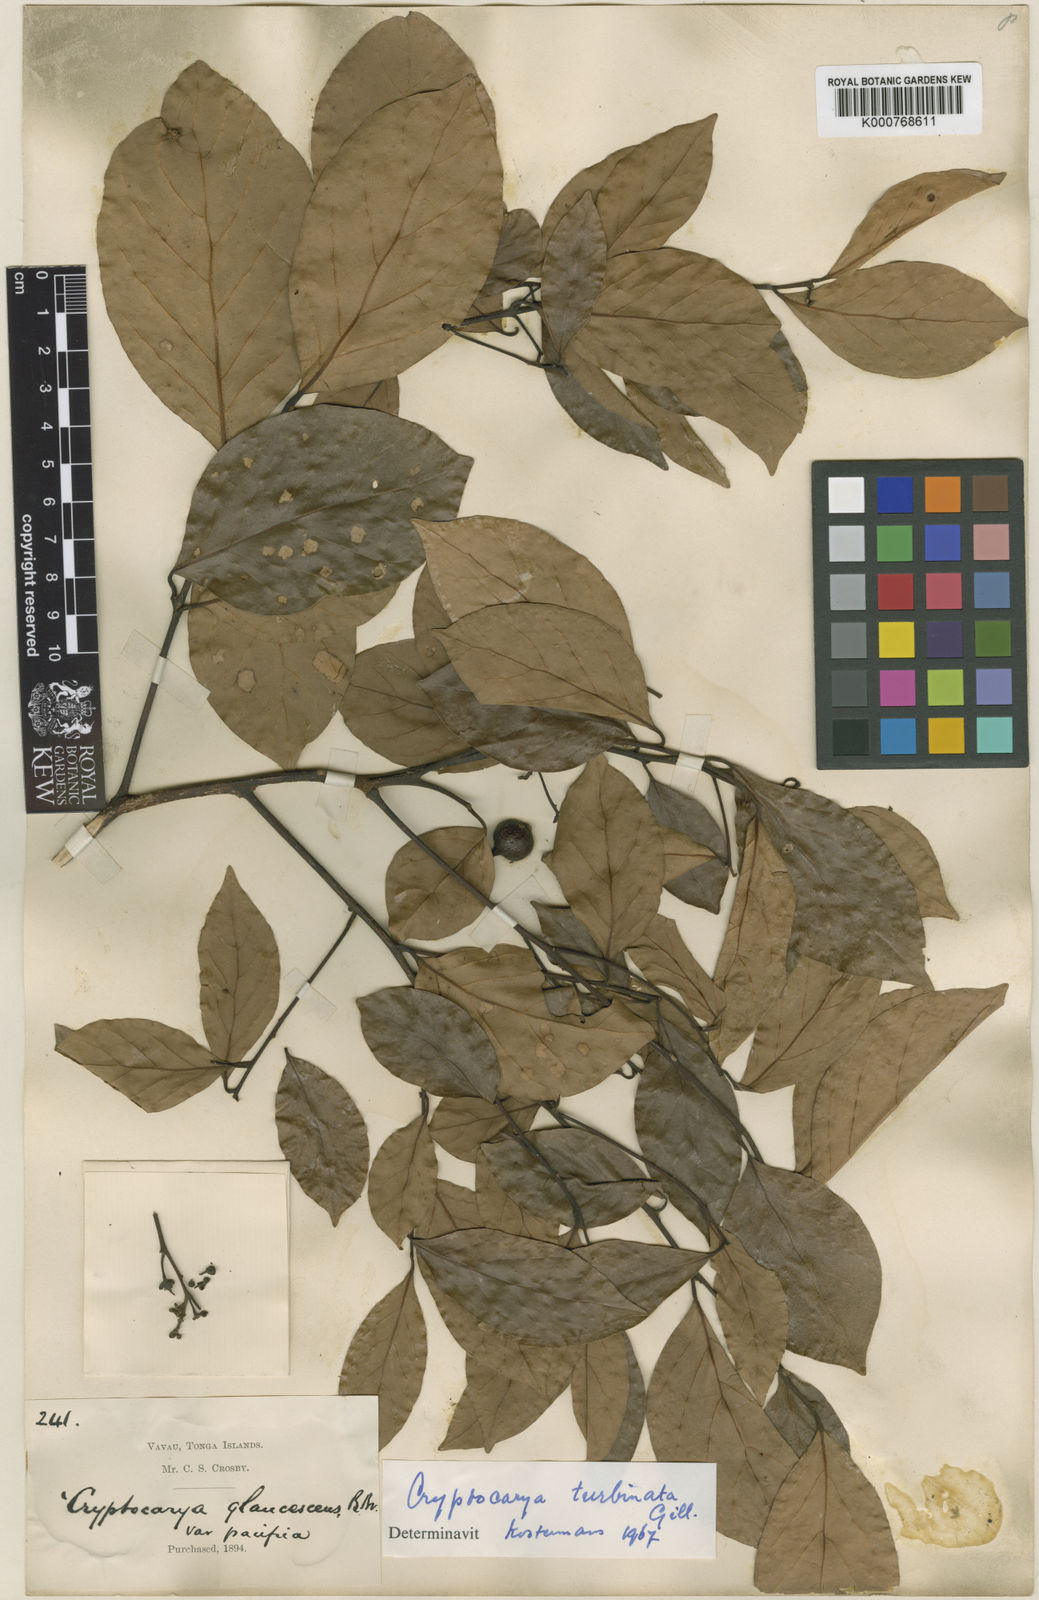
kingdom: Plantae
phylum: Tracheophyta
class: Magnoliopsida
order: Laurales
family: Lauraceae
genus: Cryptocarya
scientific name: Cryptocarya turbinata
